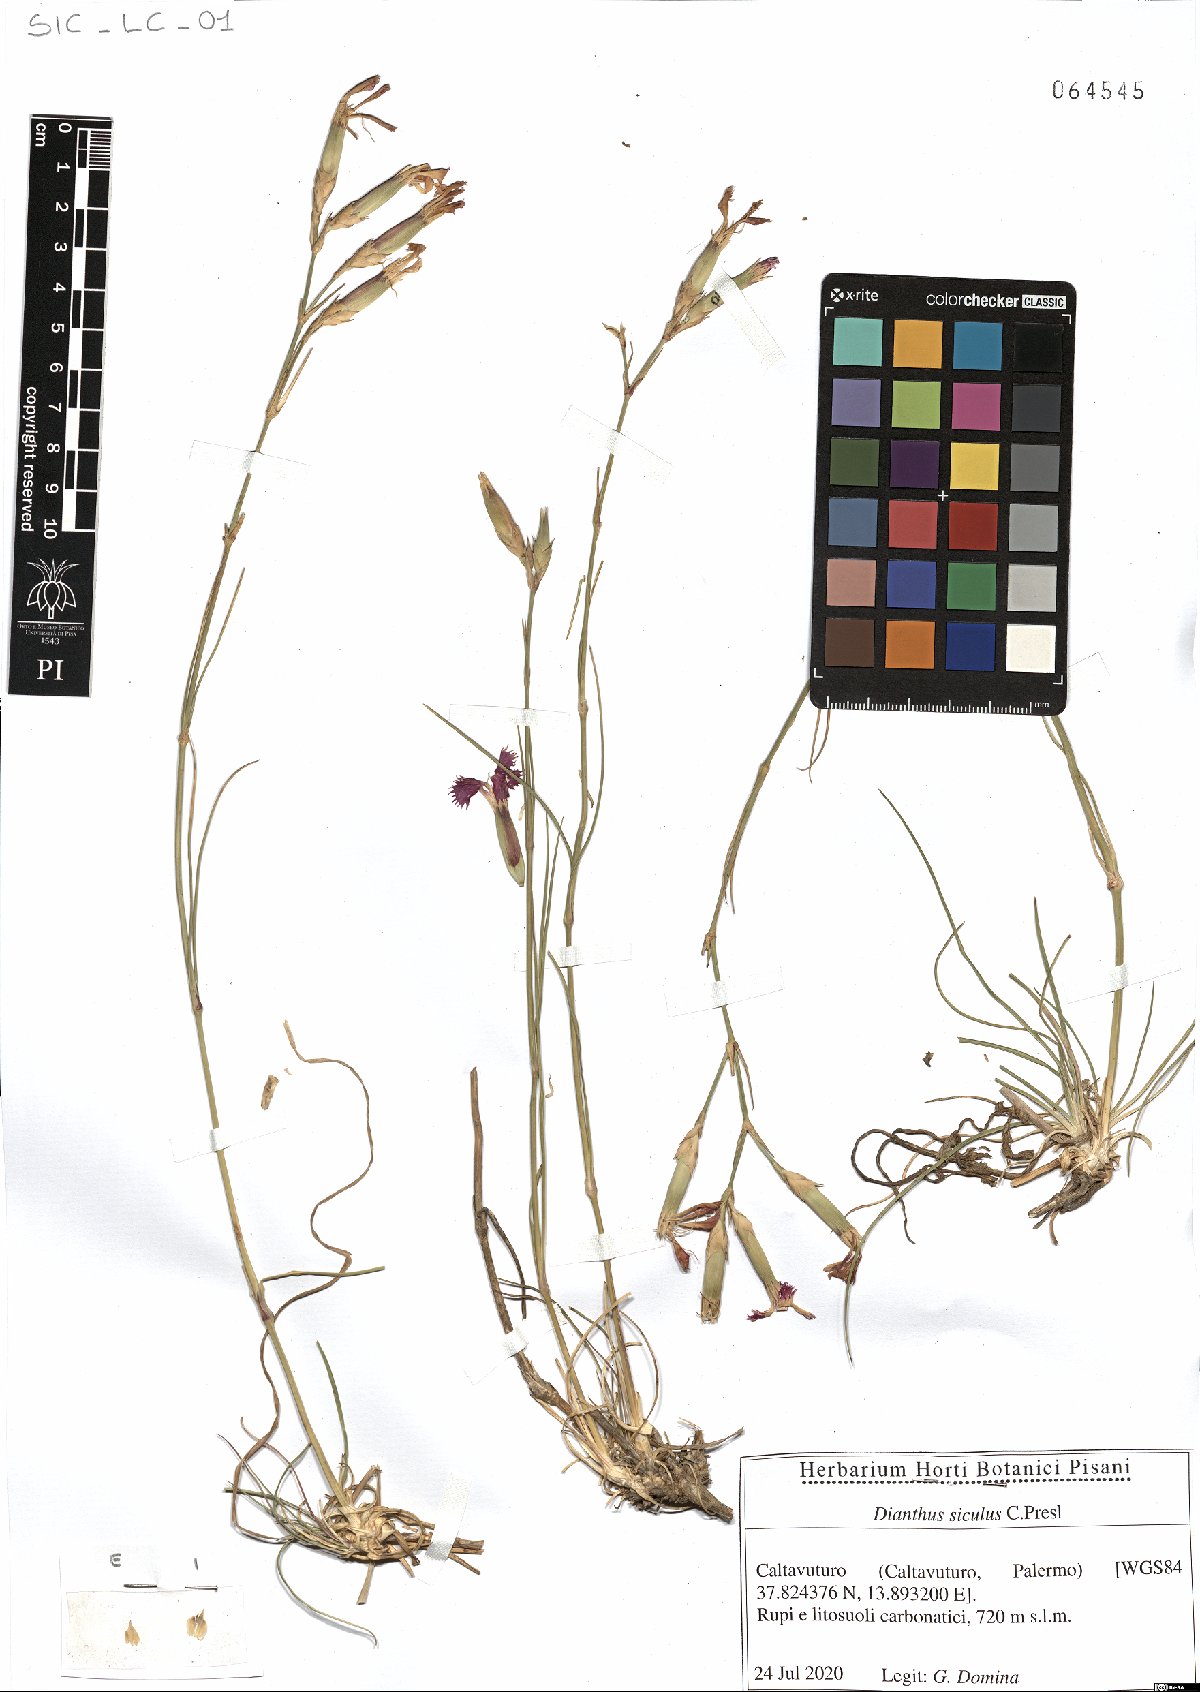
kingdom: Plantae
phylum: Tracheophyta
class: Magnoliopsida
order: Caryophyllales
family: Caryophyllaceae
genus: Dianthus
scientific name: Dianthus siculus
